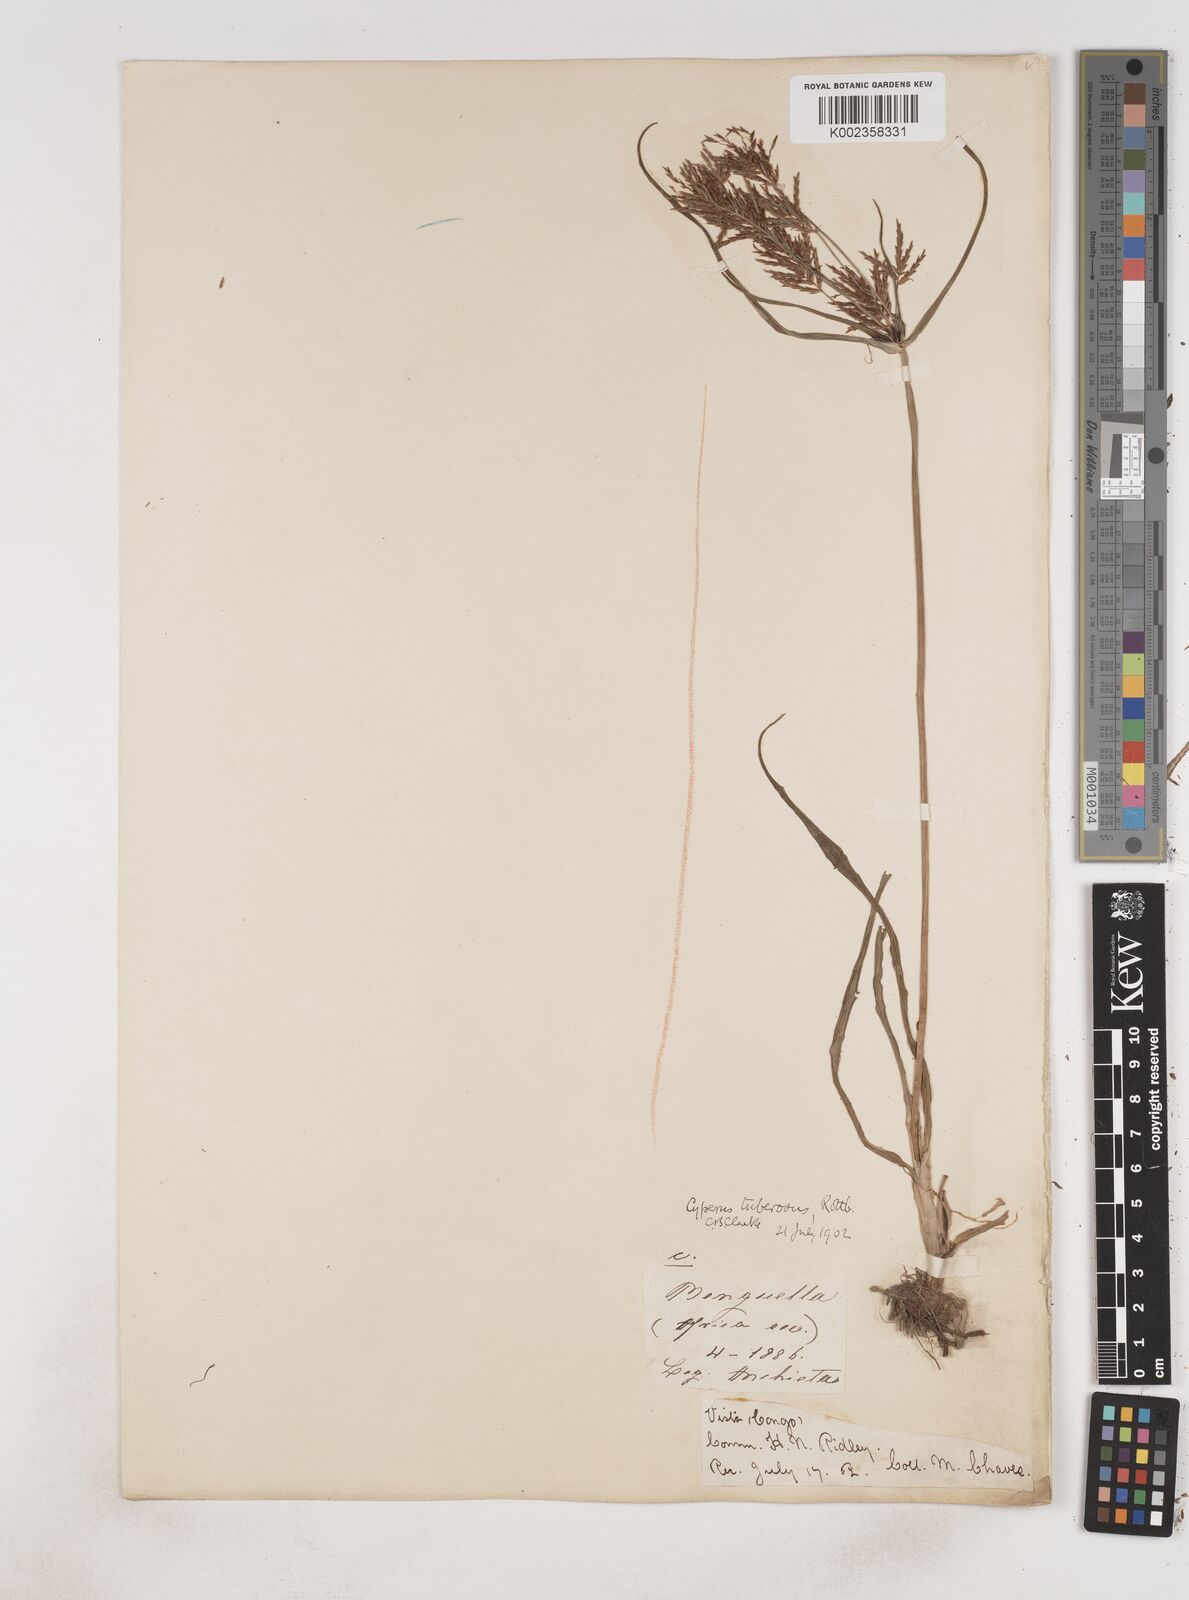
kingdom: Plantae
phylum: Tracheophyta
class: Liliopsida
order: Poales
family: Cyperaceae
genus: Cyperus
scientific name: Cyperus tuberosus
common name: Nut grass
